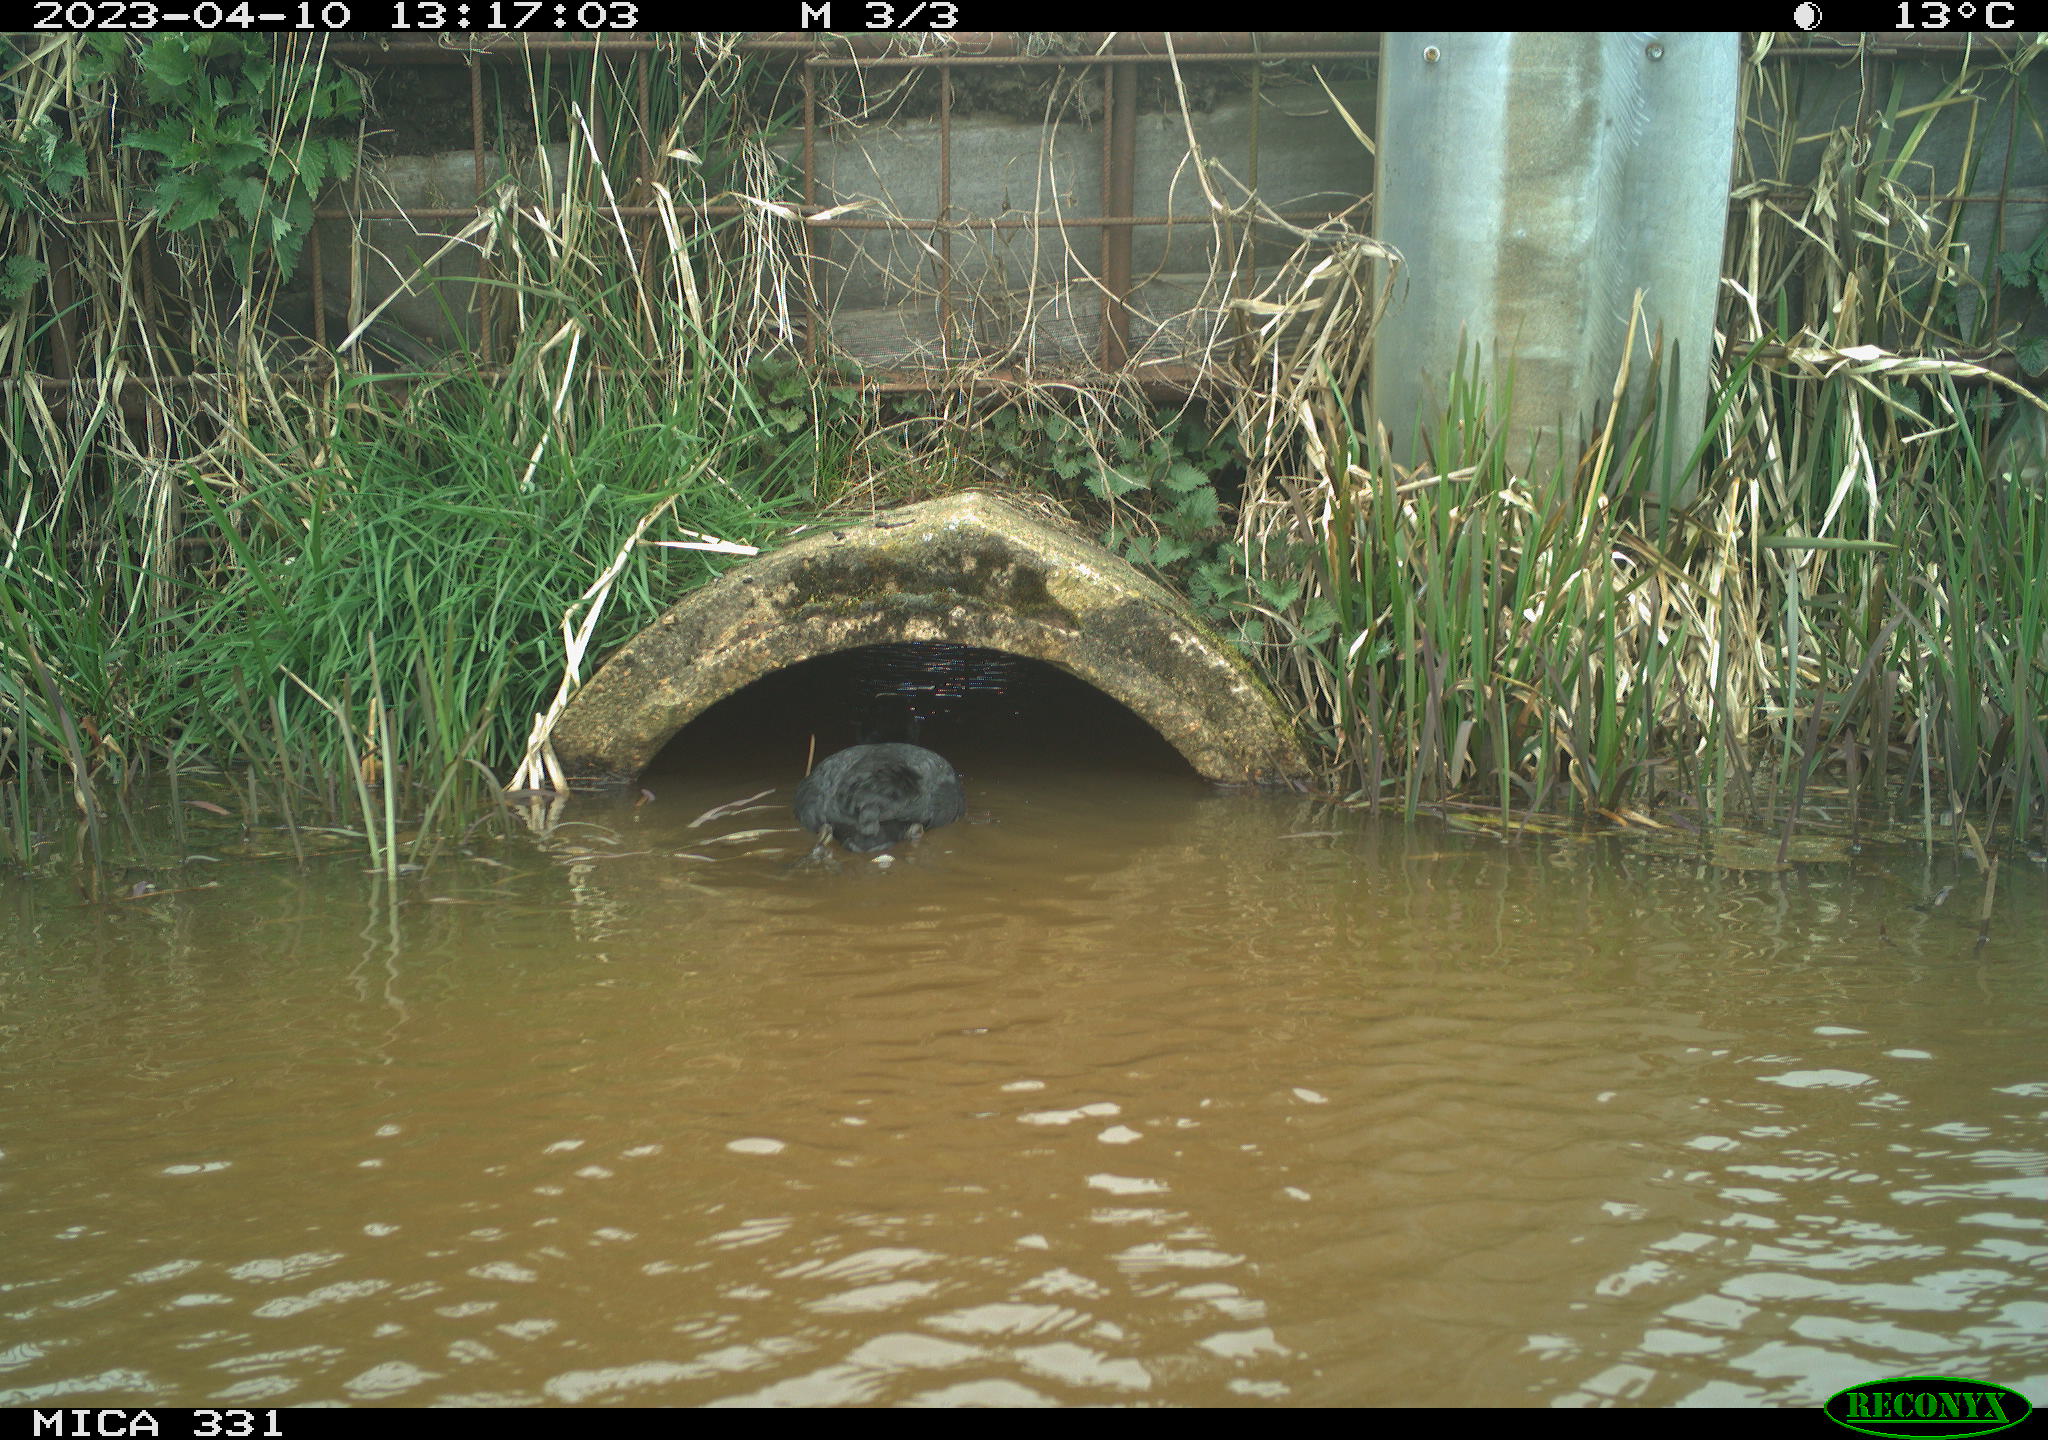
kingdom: Animalia
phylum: Chordata
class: Aves
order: Gruiformes
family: Rallidae
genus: Fulica
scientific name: Fulica atra
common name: Eurasian coot
